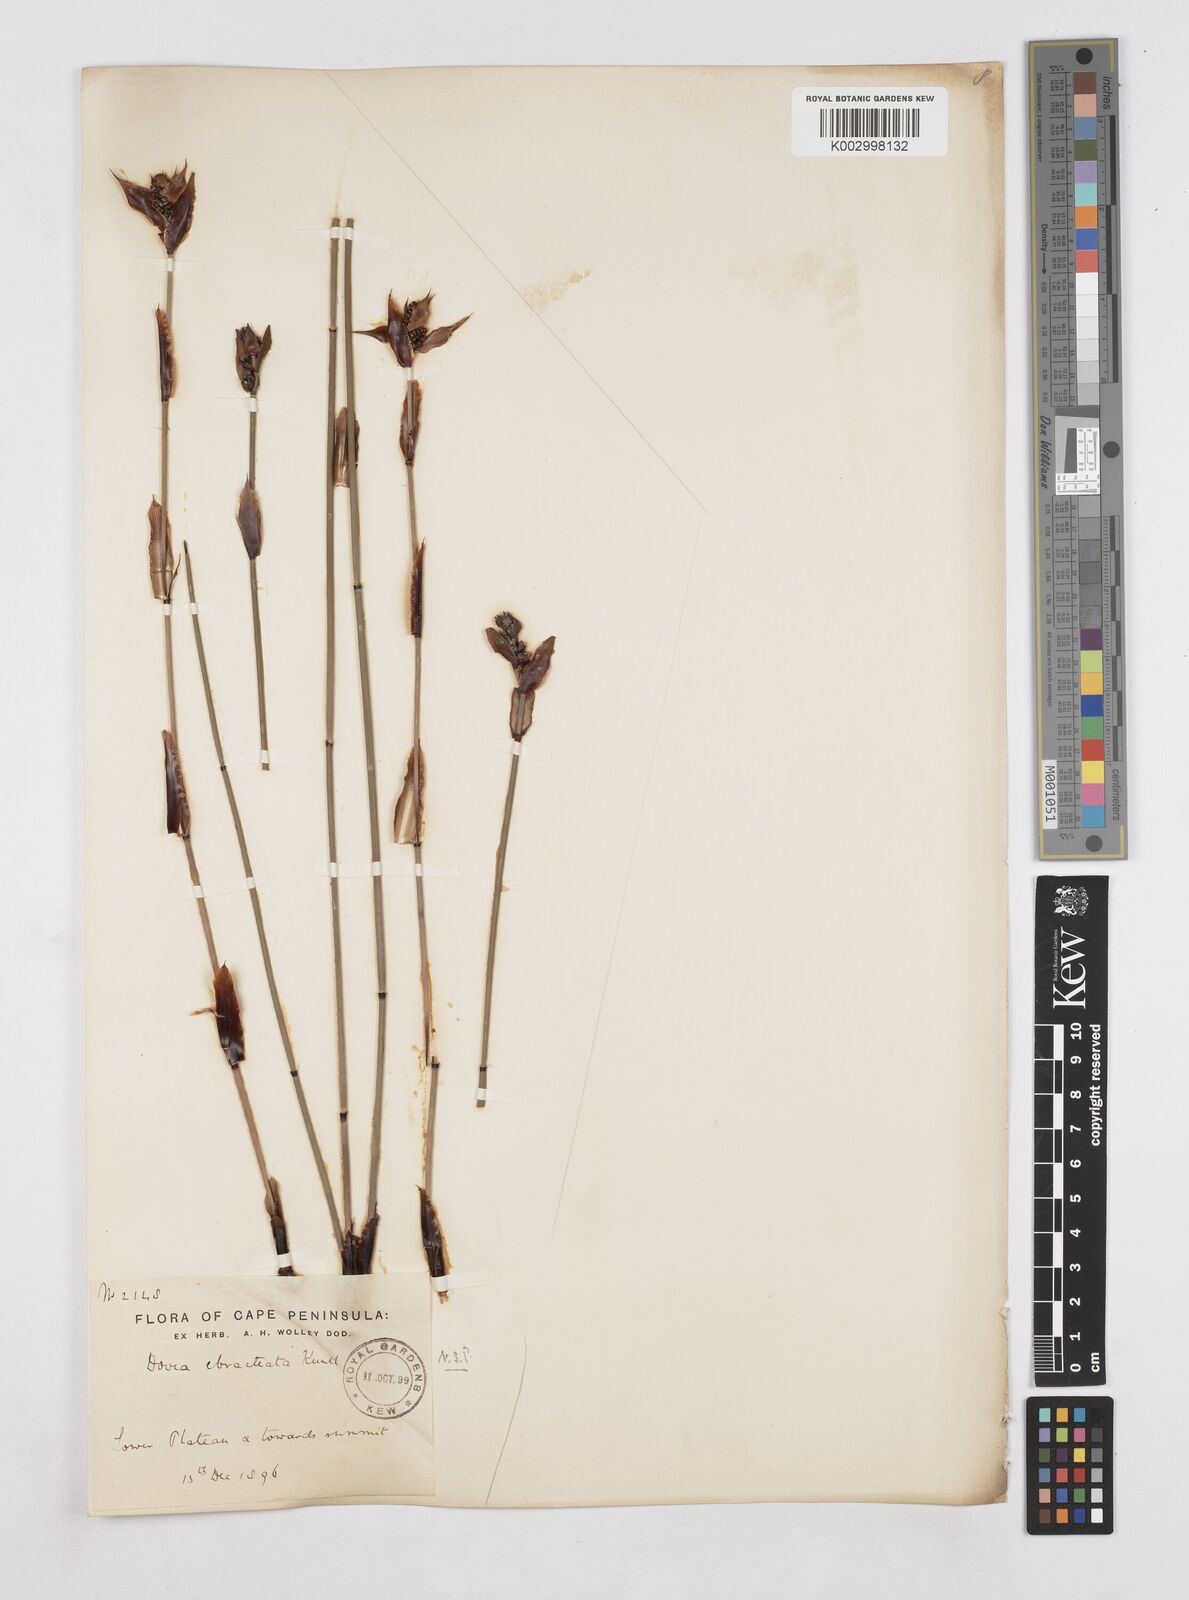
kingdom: Plantae
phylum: Tracheophyta
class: Liliopsida
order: Poales
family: Restionaceae
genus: Elegia
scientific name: Elegia ebracteata
